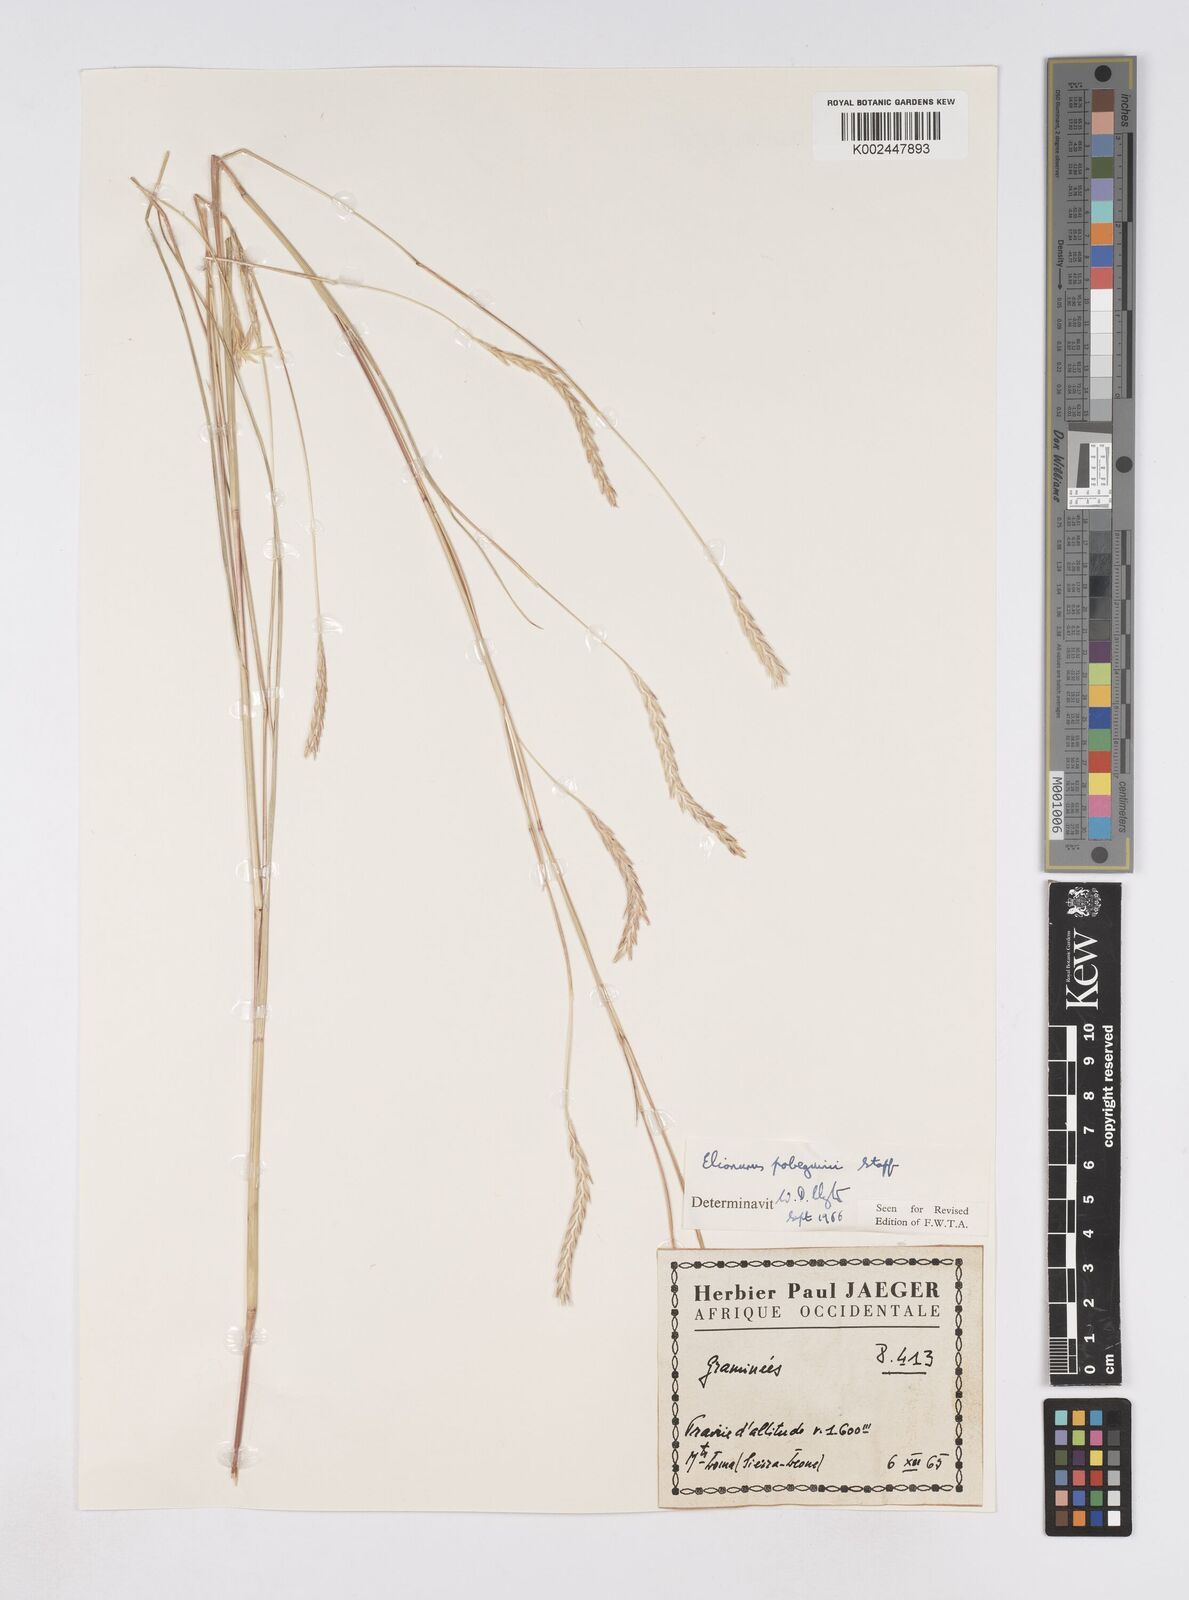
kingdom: Plantae
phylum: Tracheophyta
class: Liliopsida
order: Poales
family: Poaceae
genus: Elionurus
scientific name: Elionurus ciliaris
